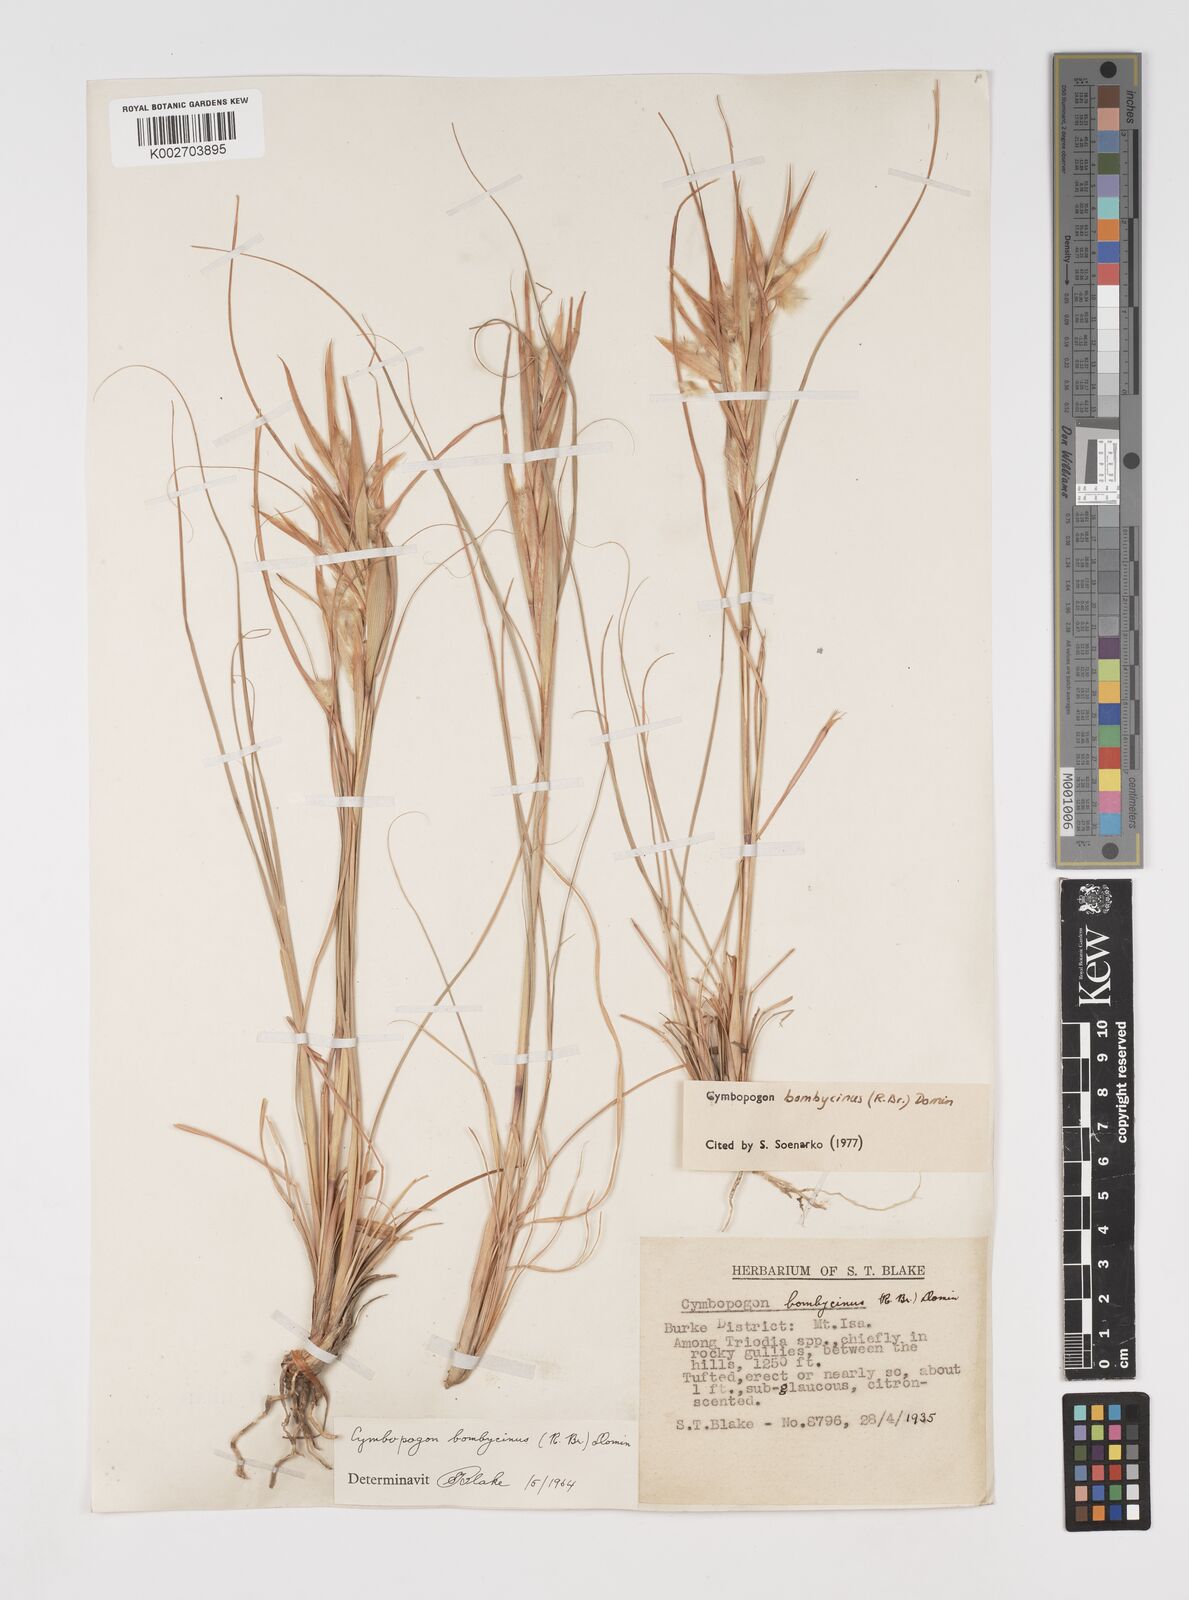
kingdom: Plantae
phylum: Tracheophyta
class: Liliopsida
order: Poales
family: Poaceae
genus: Cymbopogon
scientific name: Cymbopogon bombycinus
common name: Citronella grass
